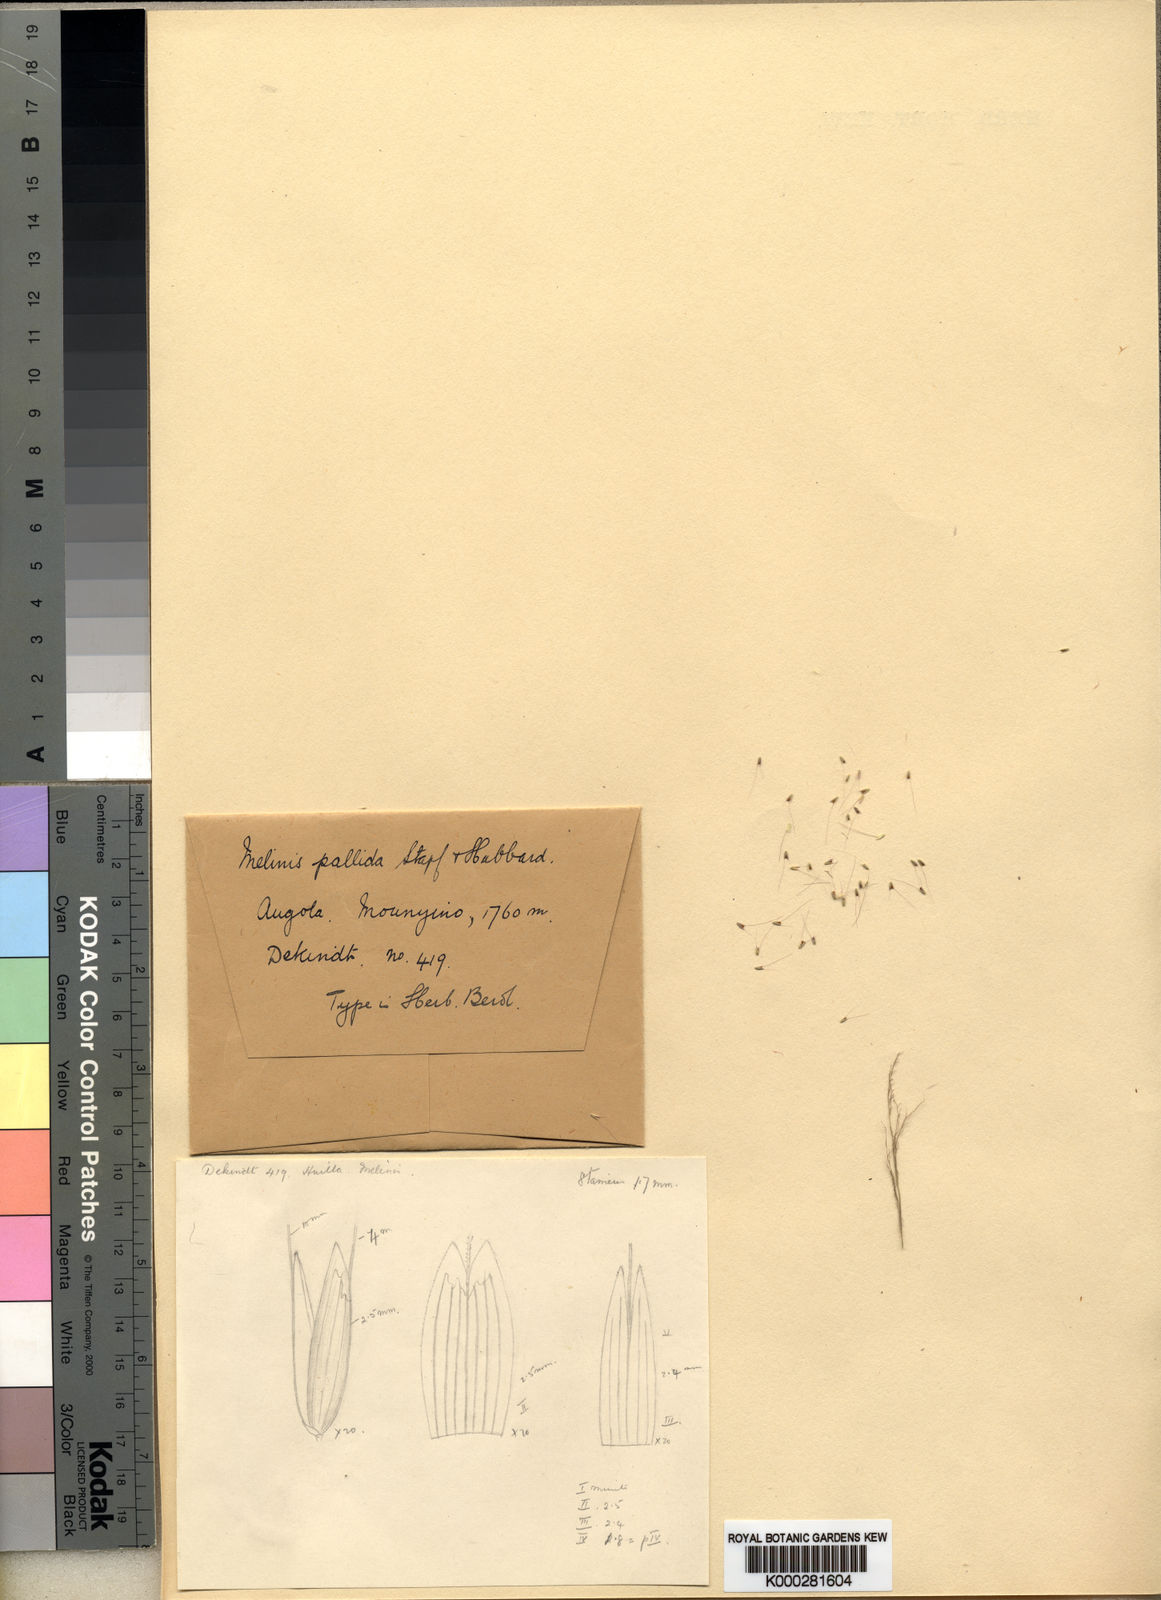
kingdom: Plantae
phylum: Tracheophyta
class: Liliopsida
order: Poales
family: Poaceae
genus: Melinis
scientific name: Melinis ambigua
